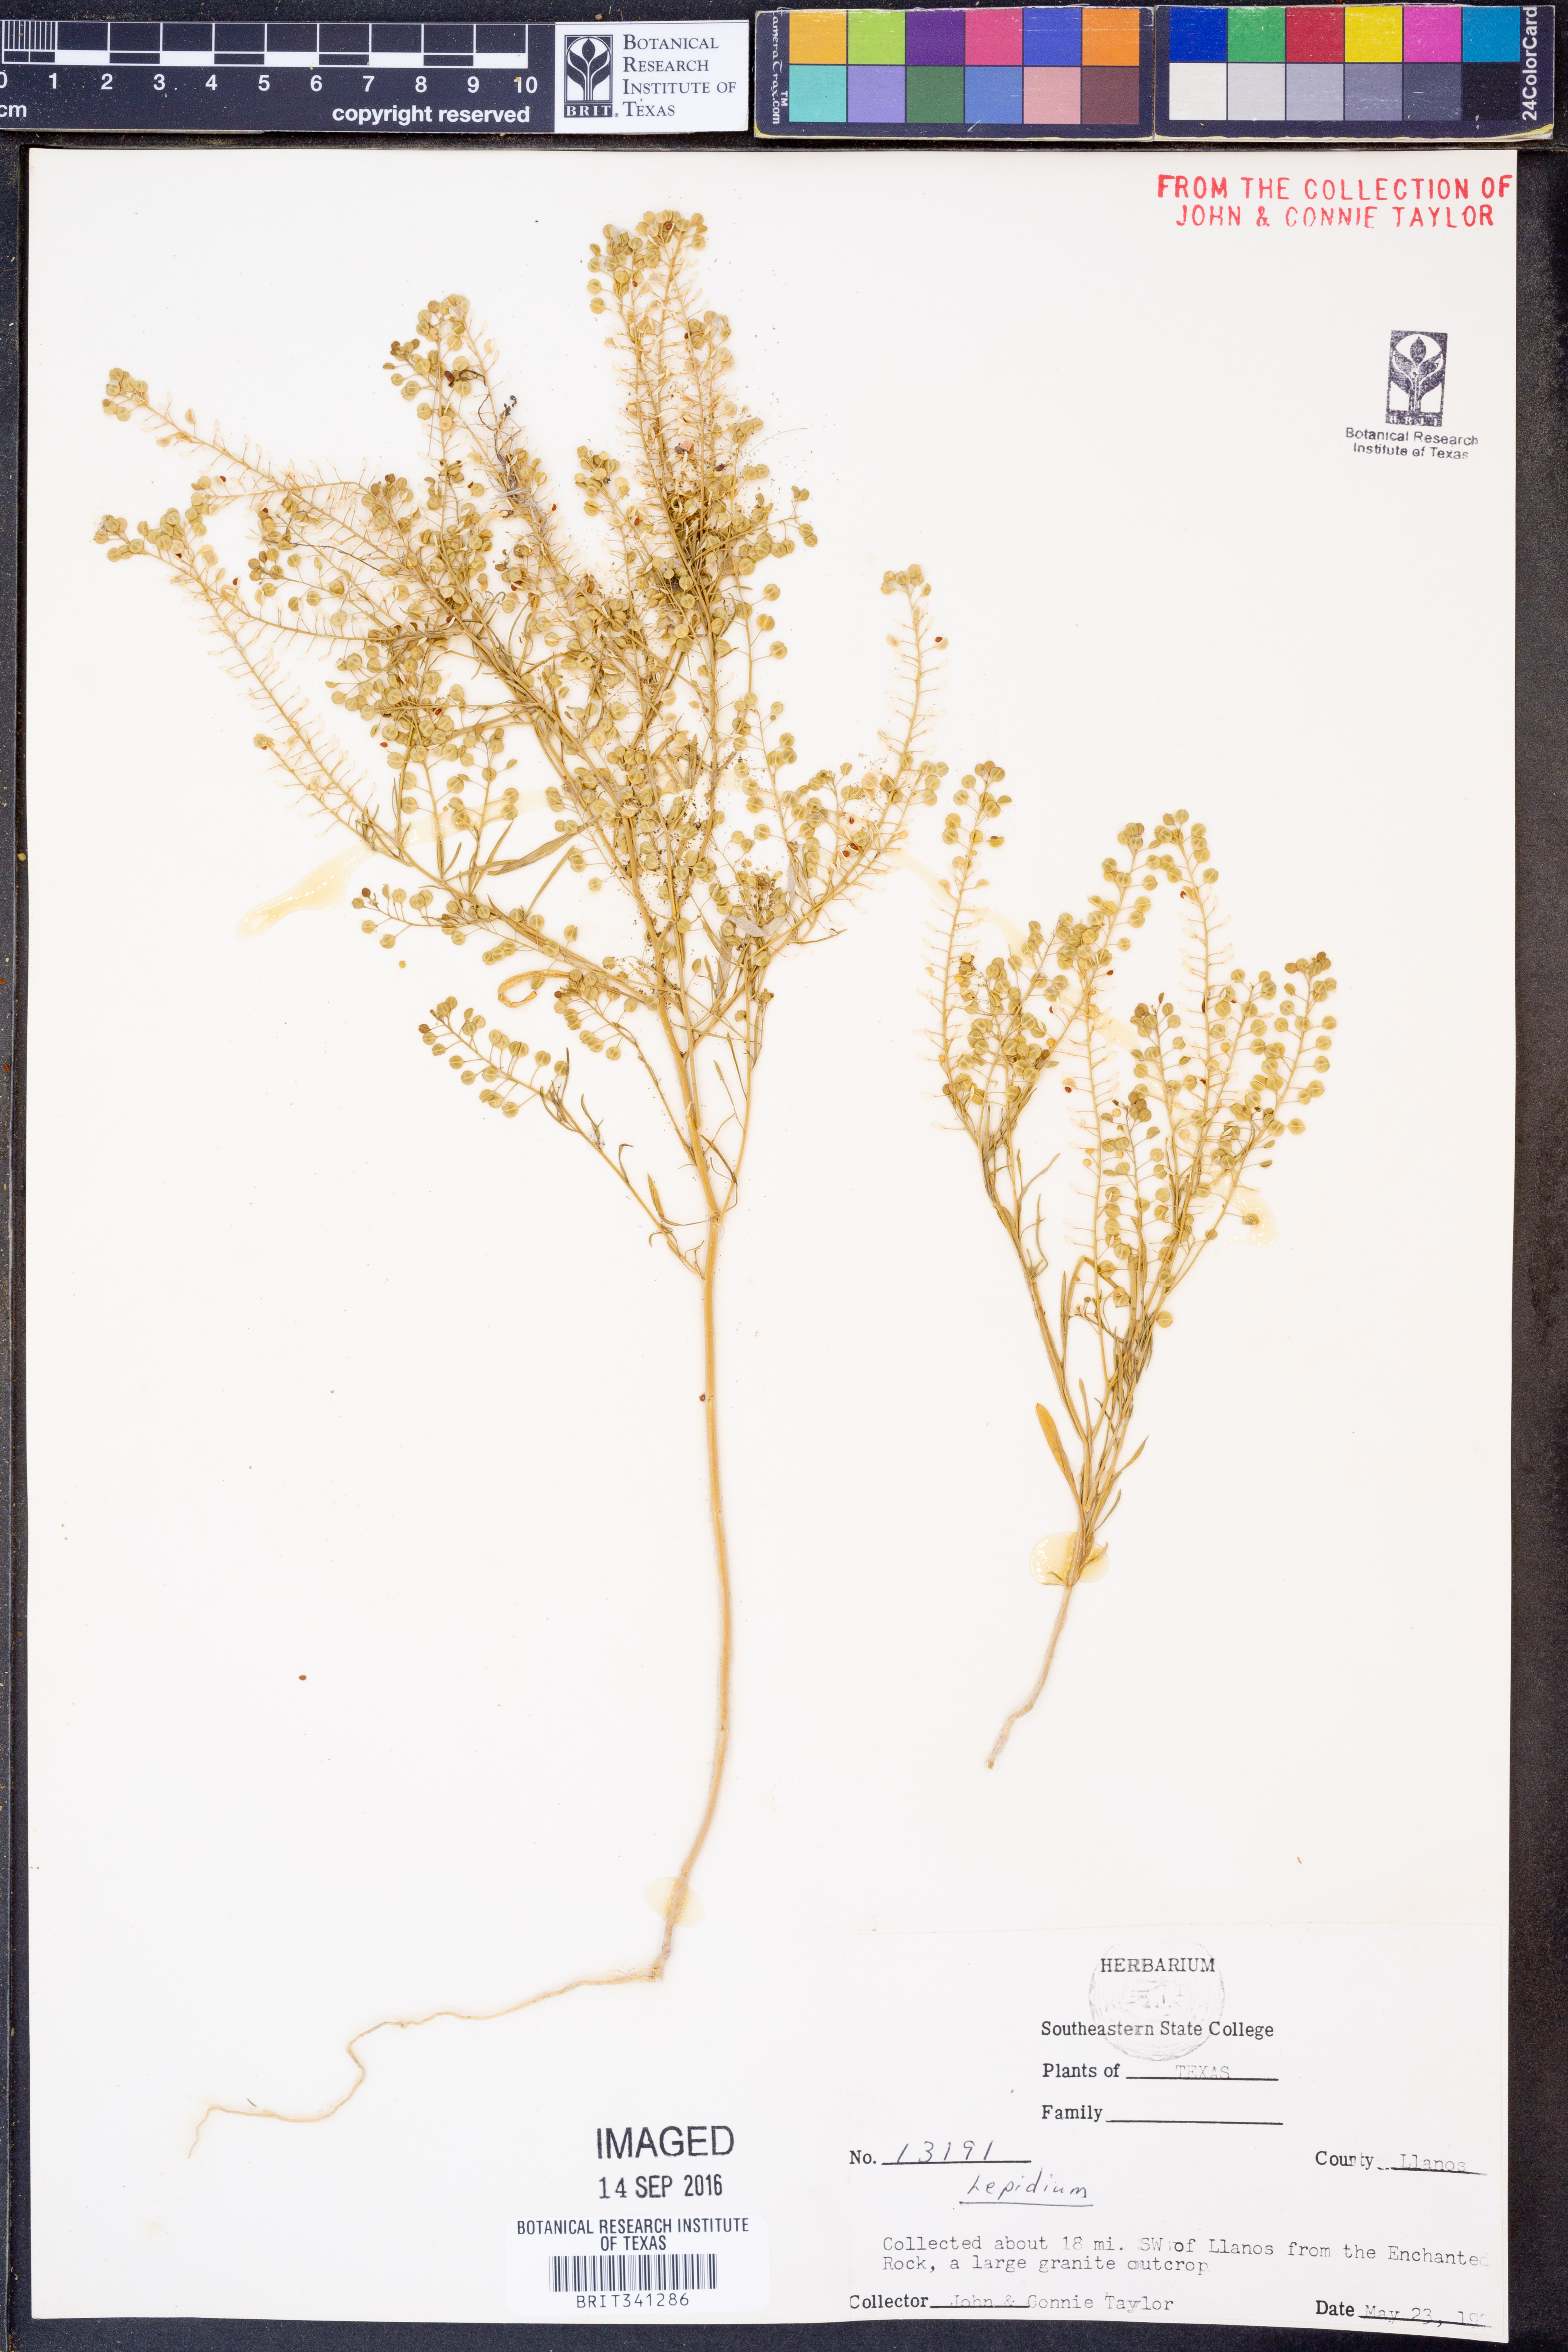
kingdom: Plantae
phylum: Tracheophyta
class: Magnoliopsida
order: Brassicales
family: Brassicaceae
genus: Lepidium
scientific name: Lepidium
